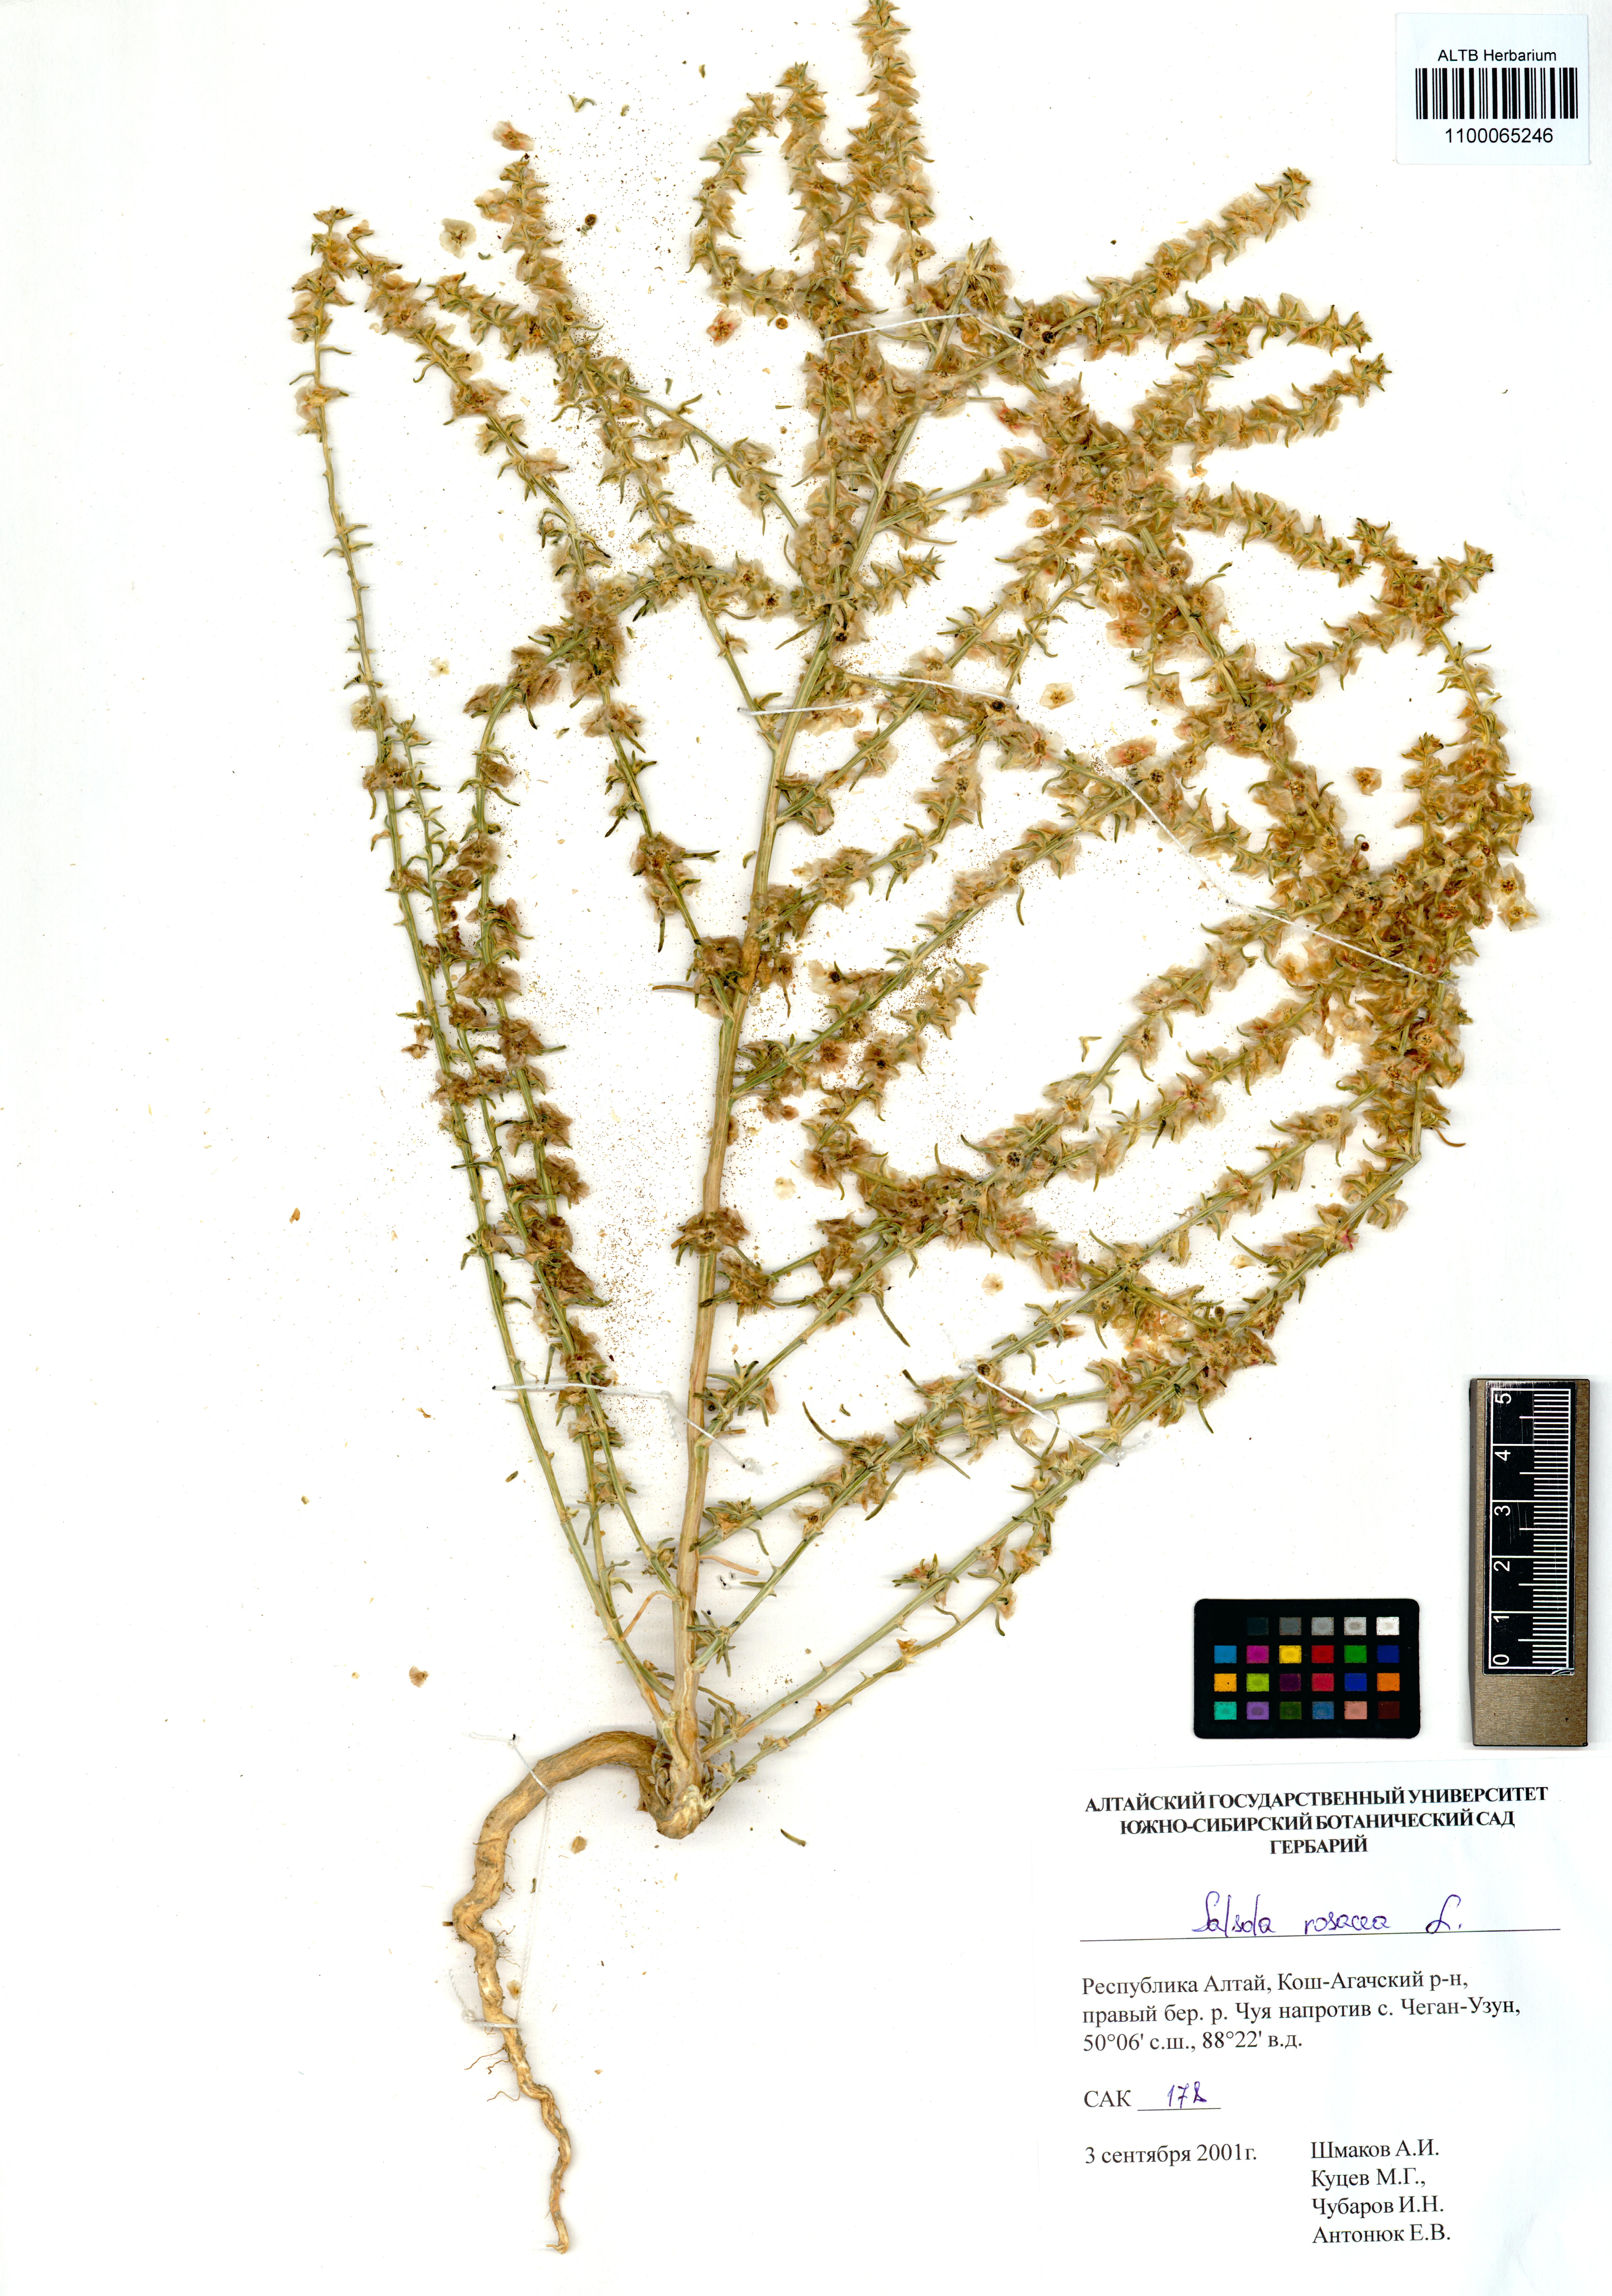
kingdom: Plantae
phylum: Tracheophyta
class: Magnoliopsida
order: Caryophyllales
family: Amaranthaceae
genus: Salsola
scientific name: Salsola rosacea
